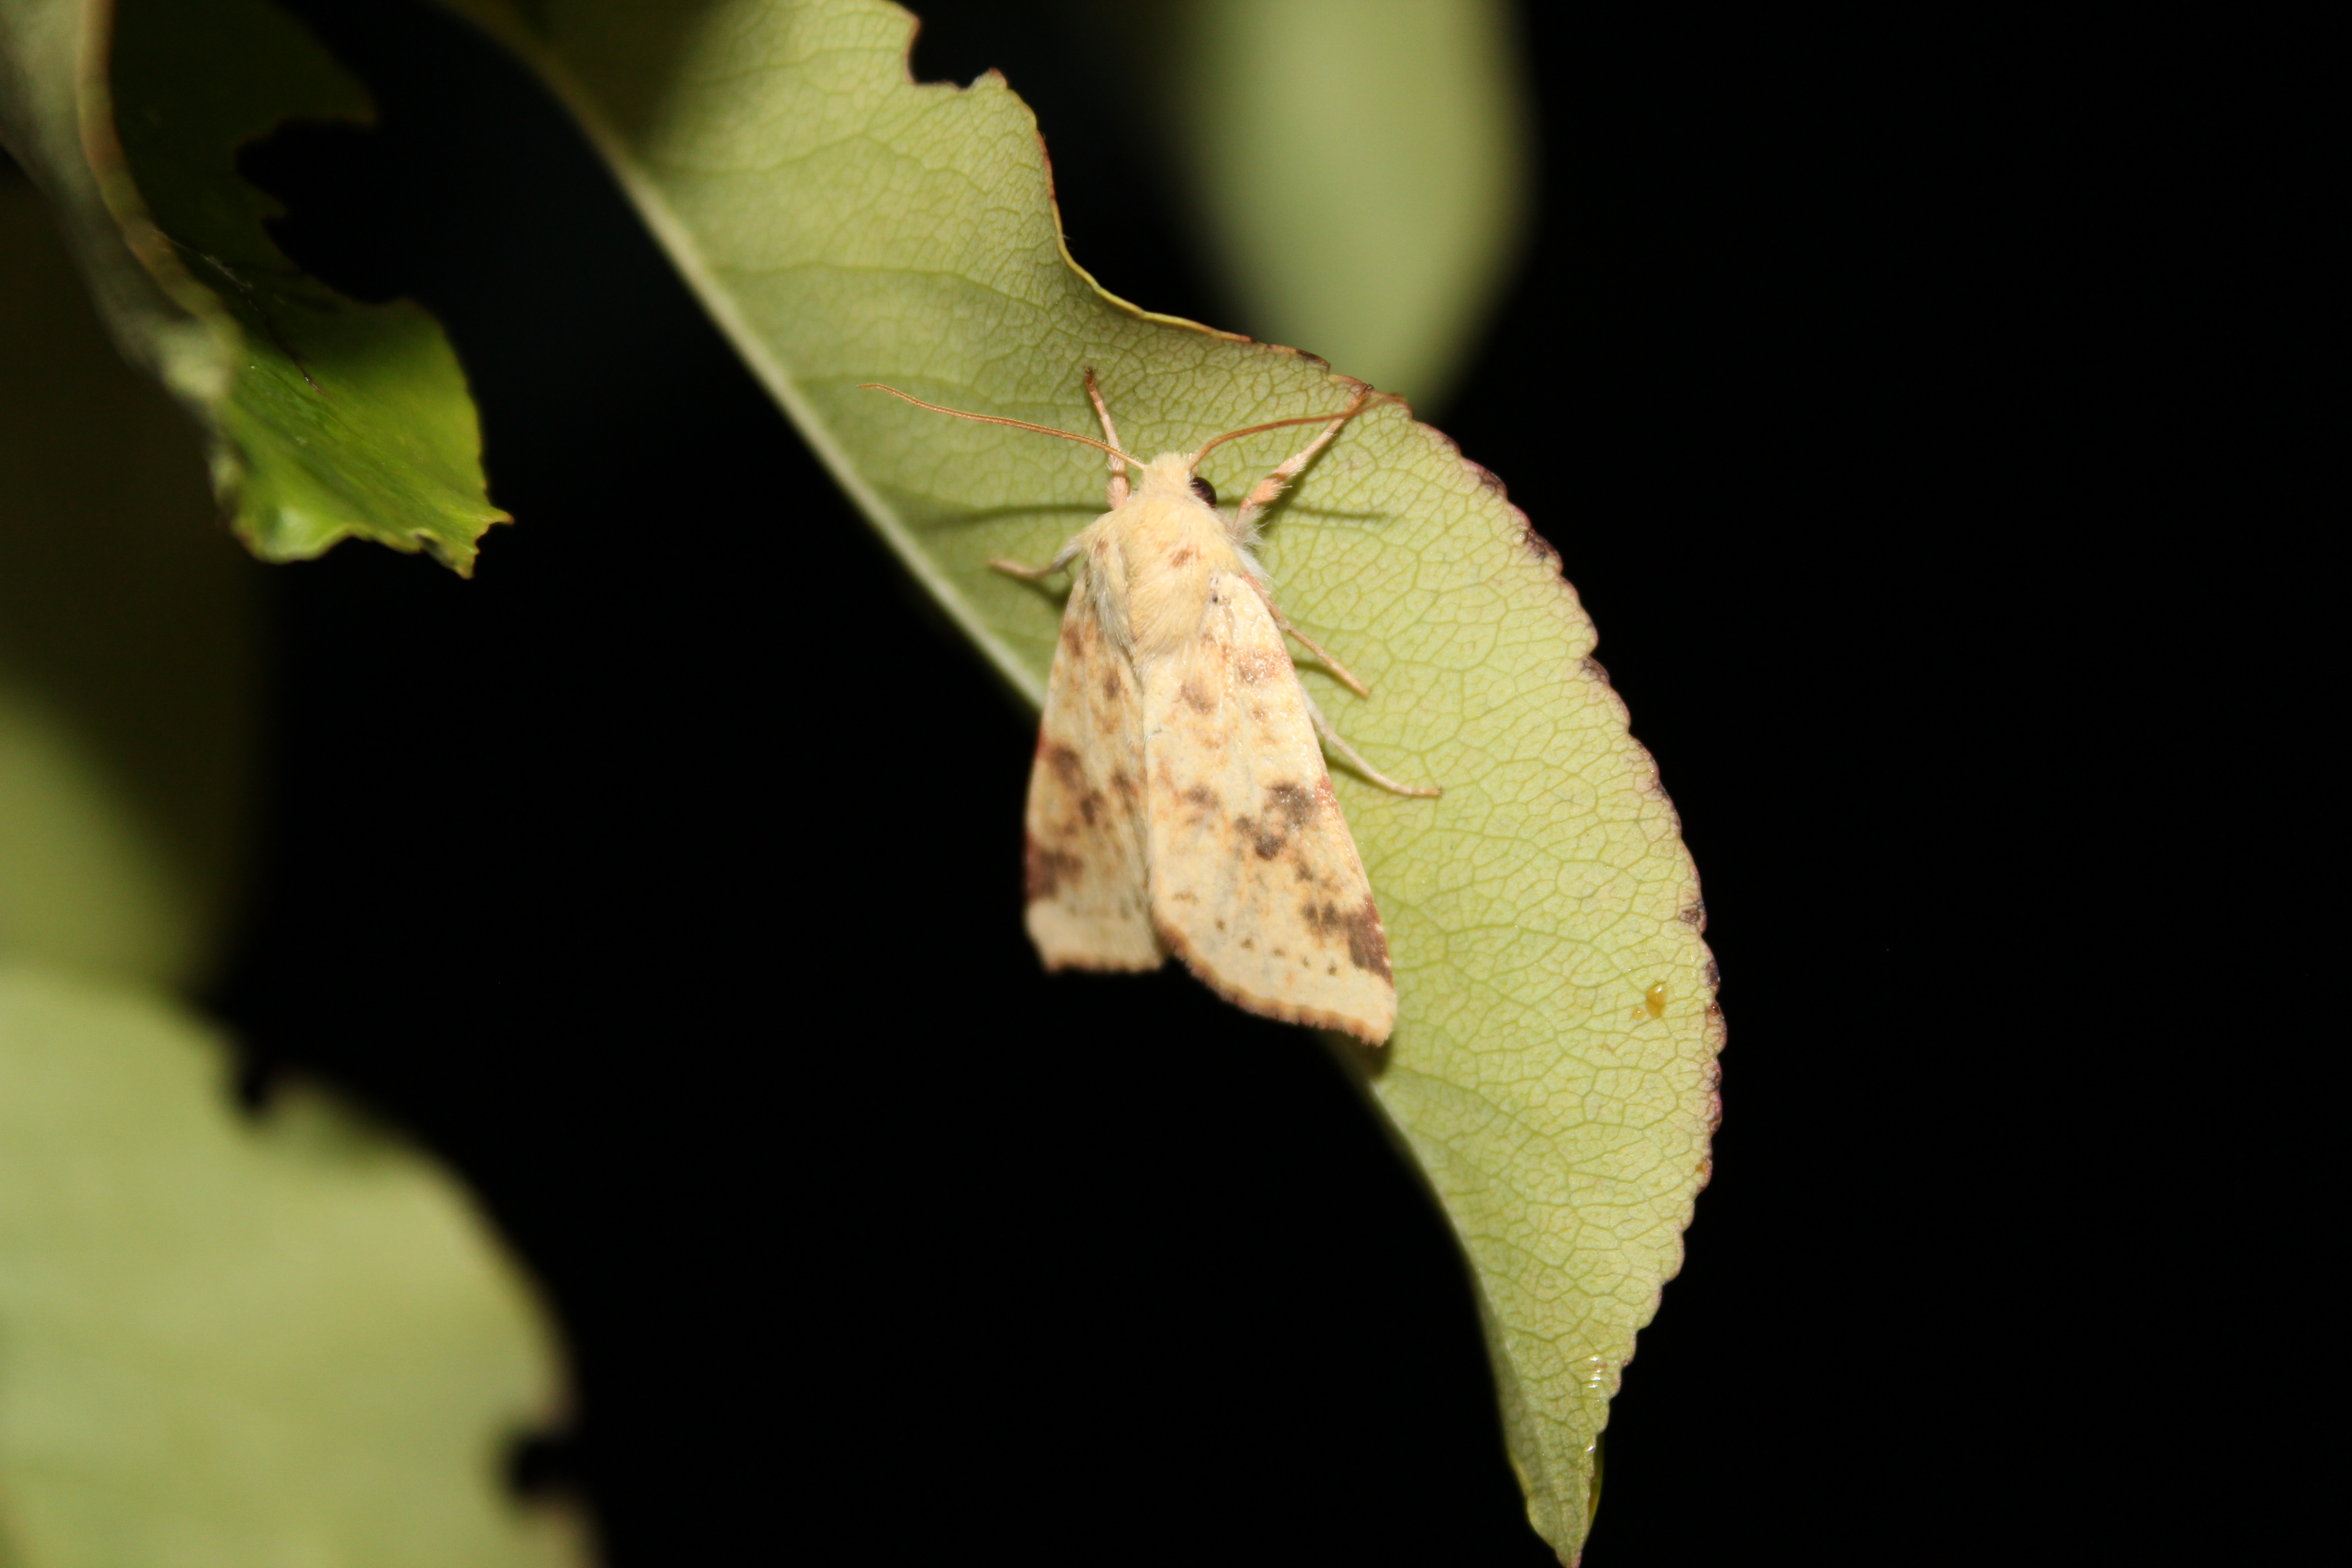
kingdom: Animalia
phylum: Arthropoda
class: Insecta
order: Lepidoptera
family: Noctuidae
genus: Xanthia
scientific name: Xanthia Cirrhia icteritia
